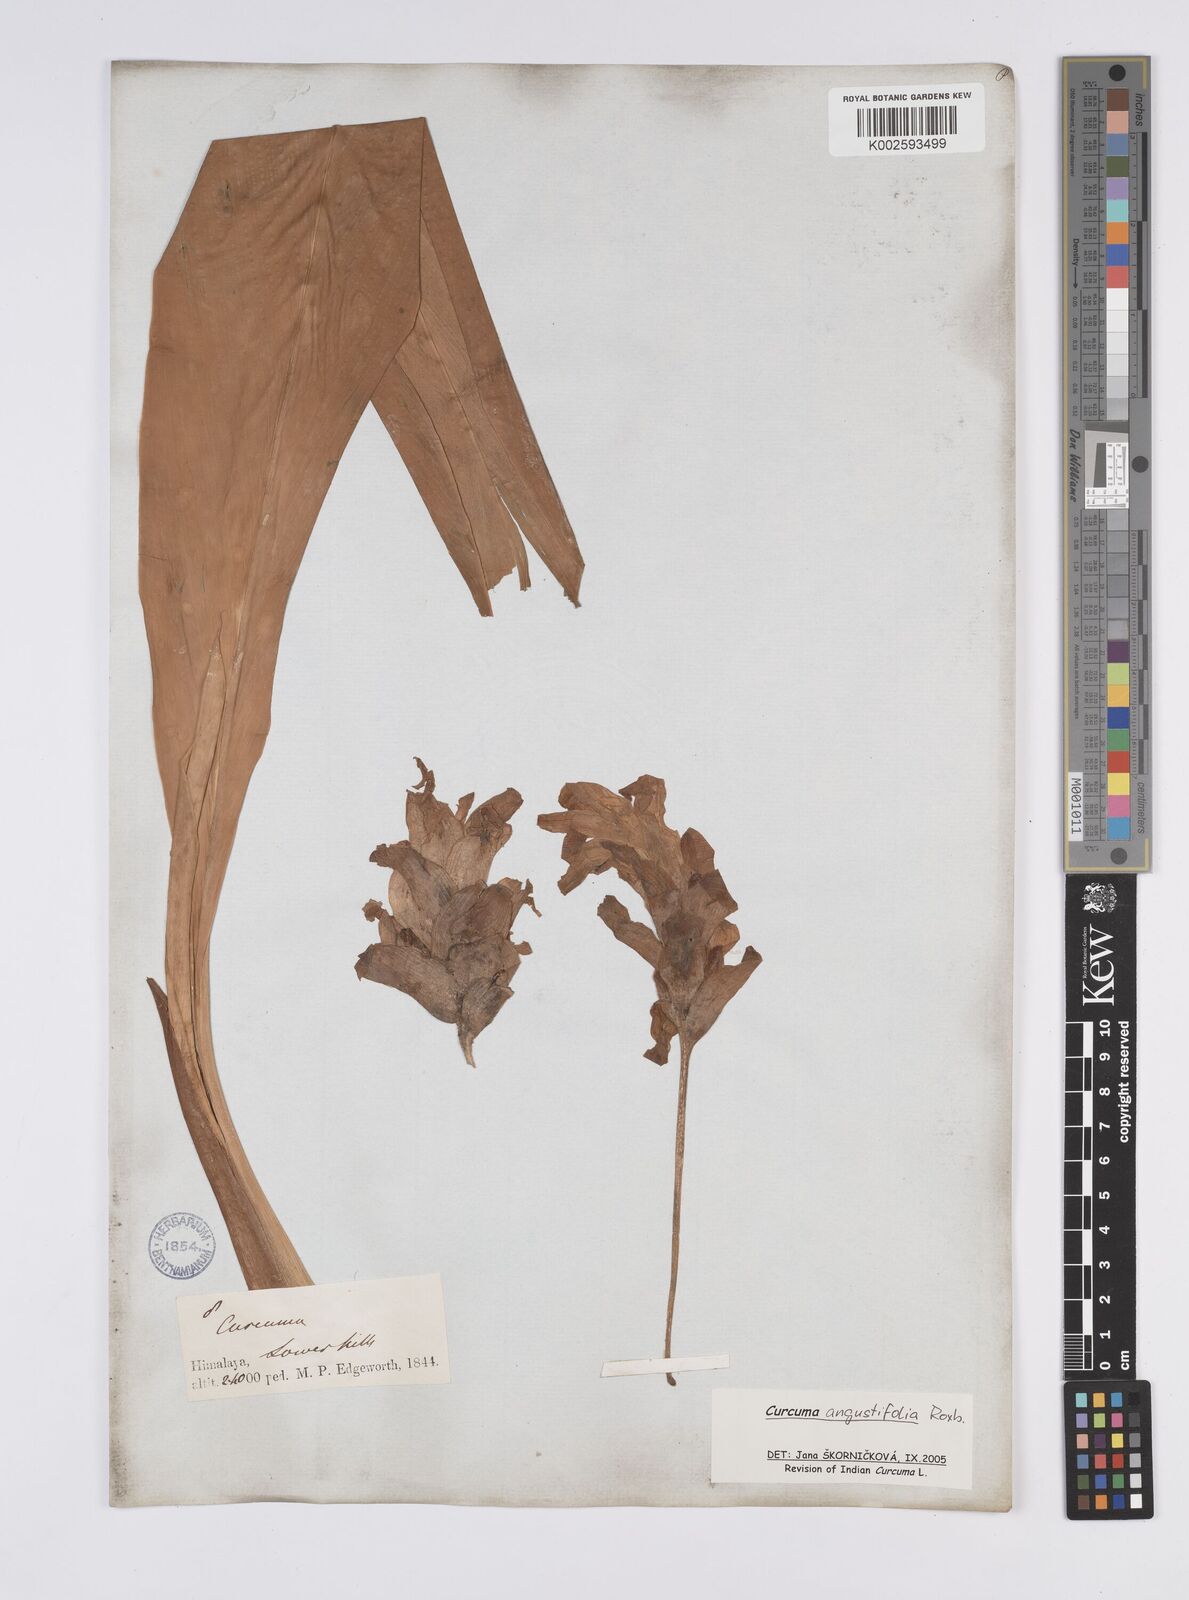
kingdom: Plantae
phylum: Tracheophyta
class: Liliopsida
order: Zingiberales
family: Zingiberaceae
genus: Curcuma
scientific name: Curcuma angustifolia
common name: East indian arrowroot
